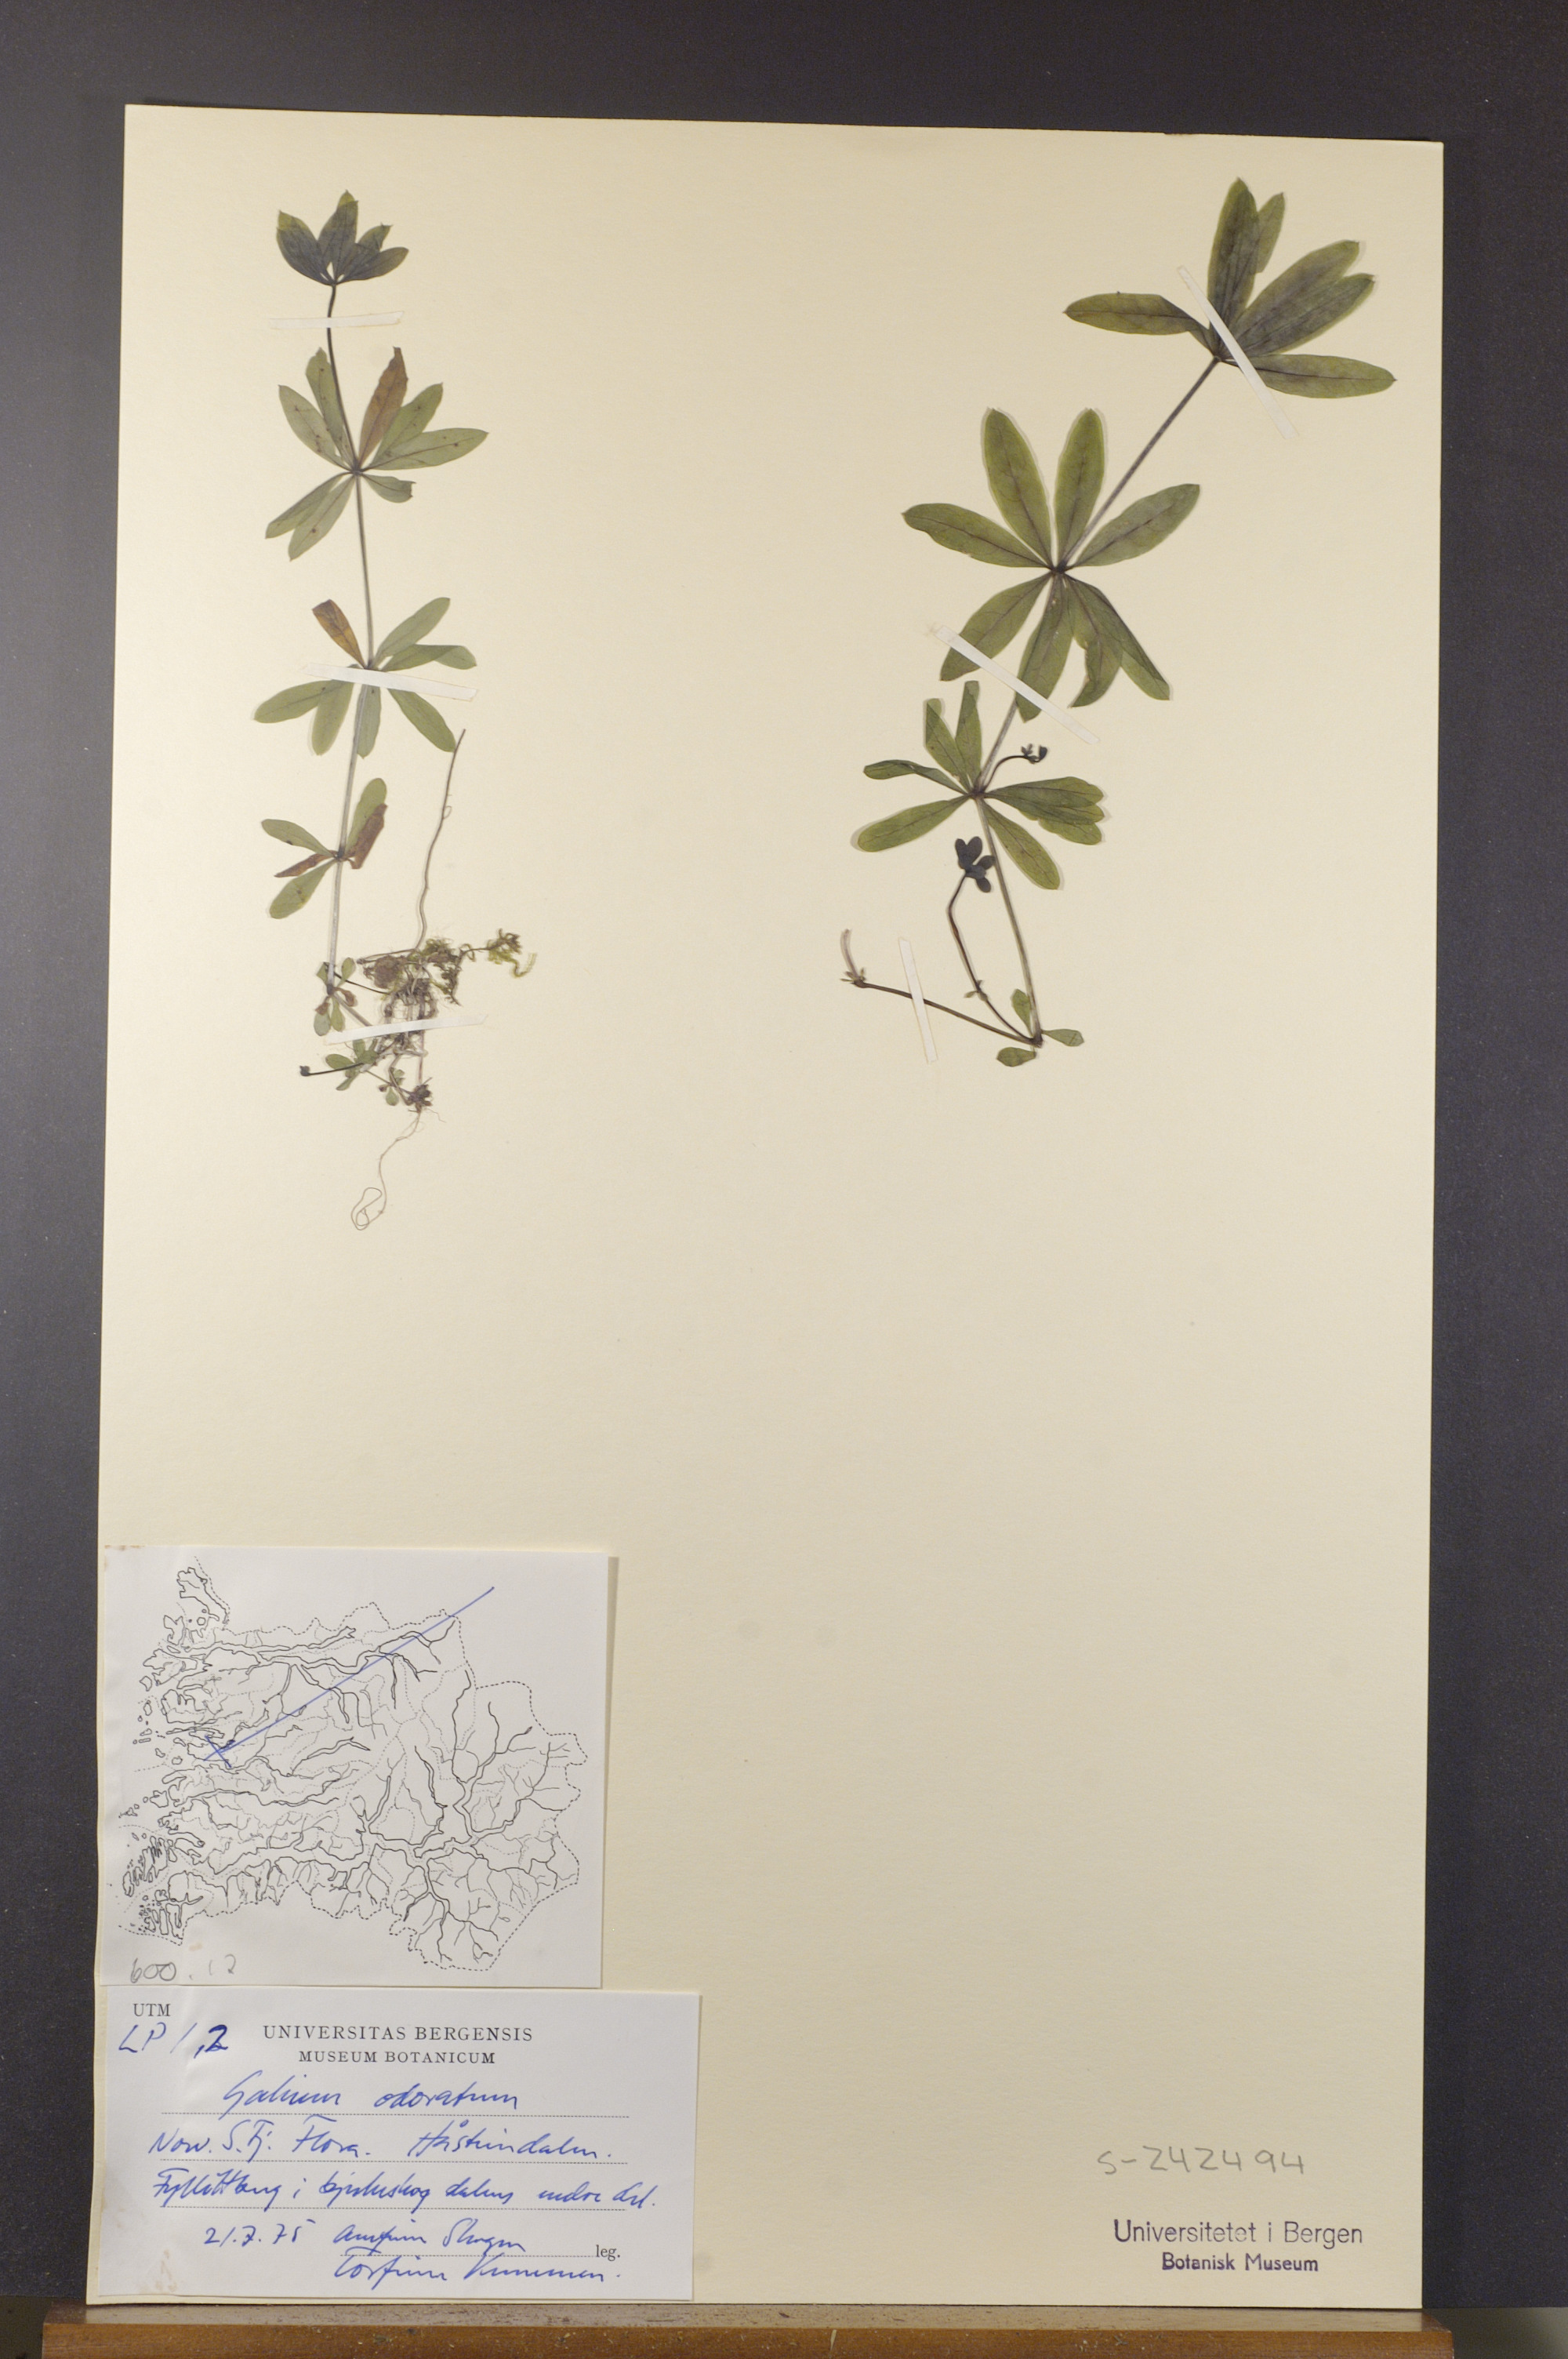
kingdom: Plantae
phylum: Tracheophyta
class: Magnoliopsida
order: Gentianales
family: Rubiaceae
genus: Galium
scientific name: Galium odoratum
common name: Sweet woodruff
